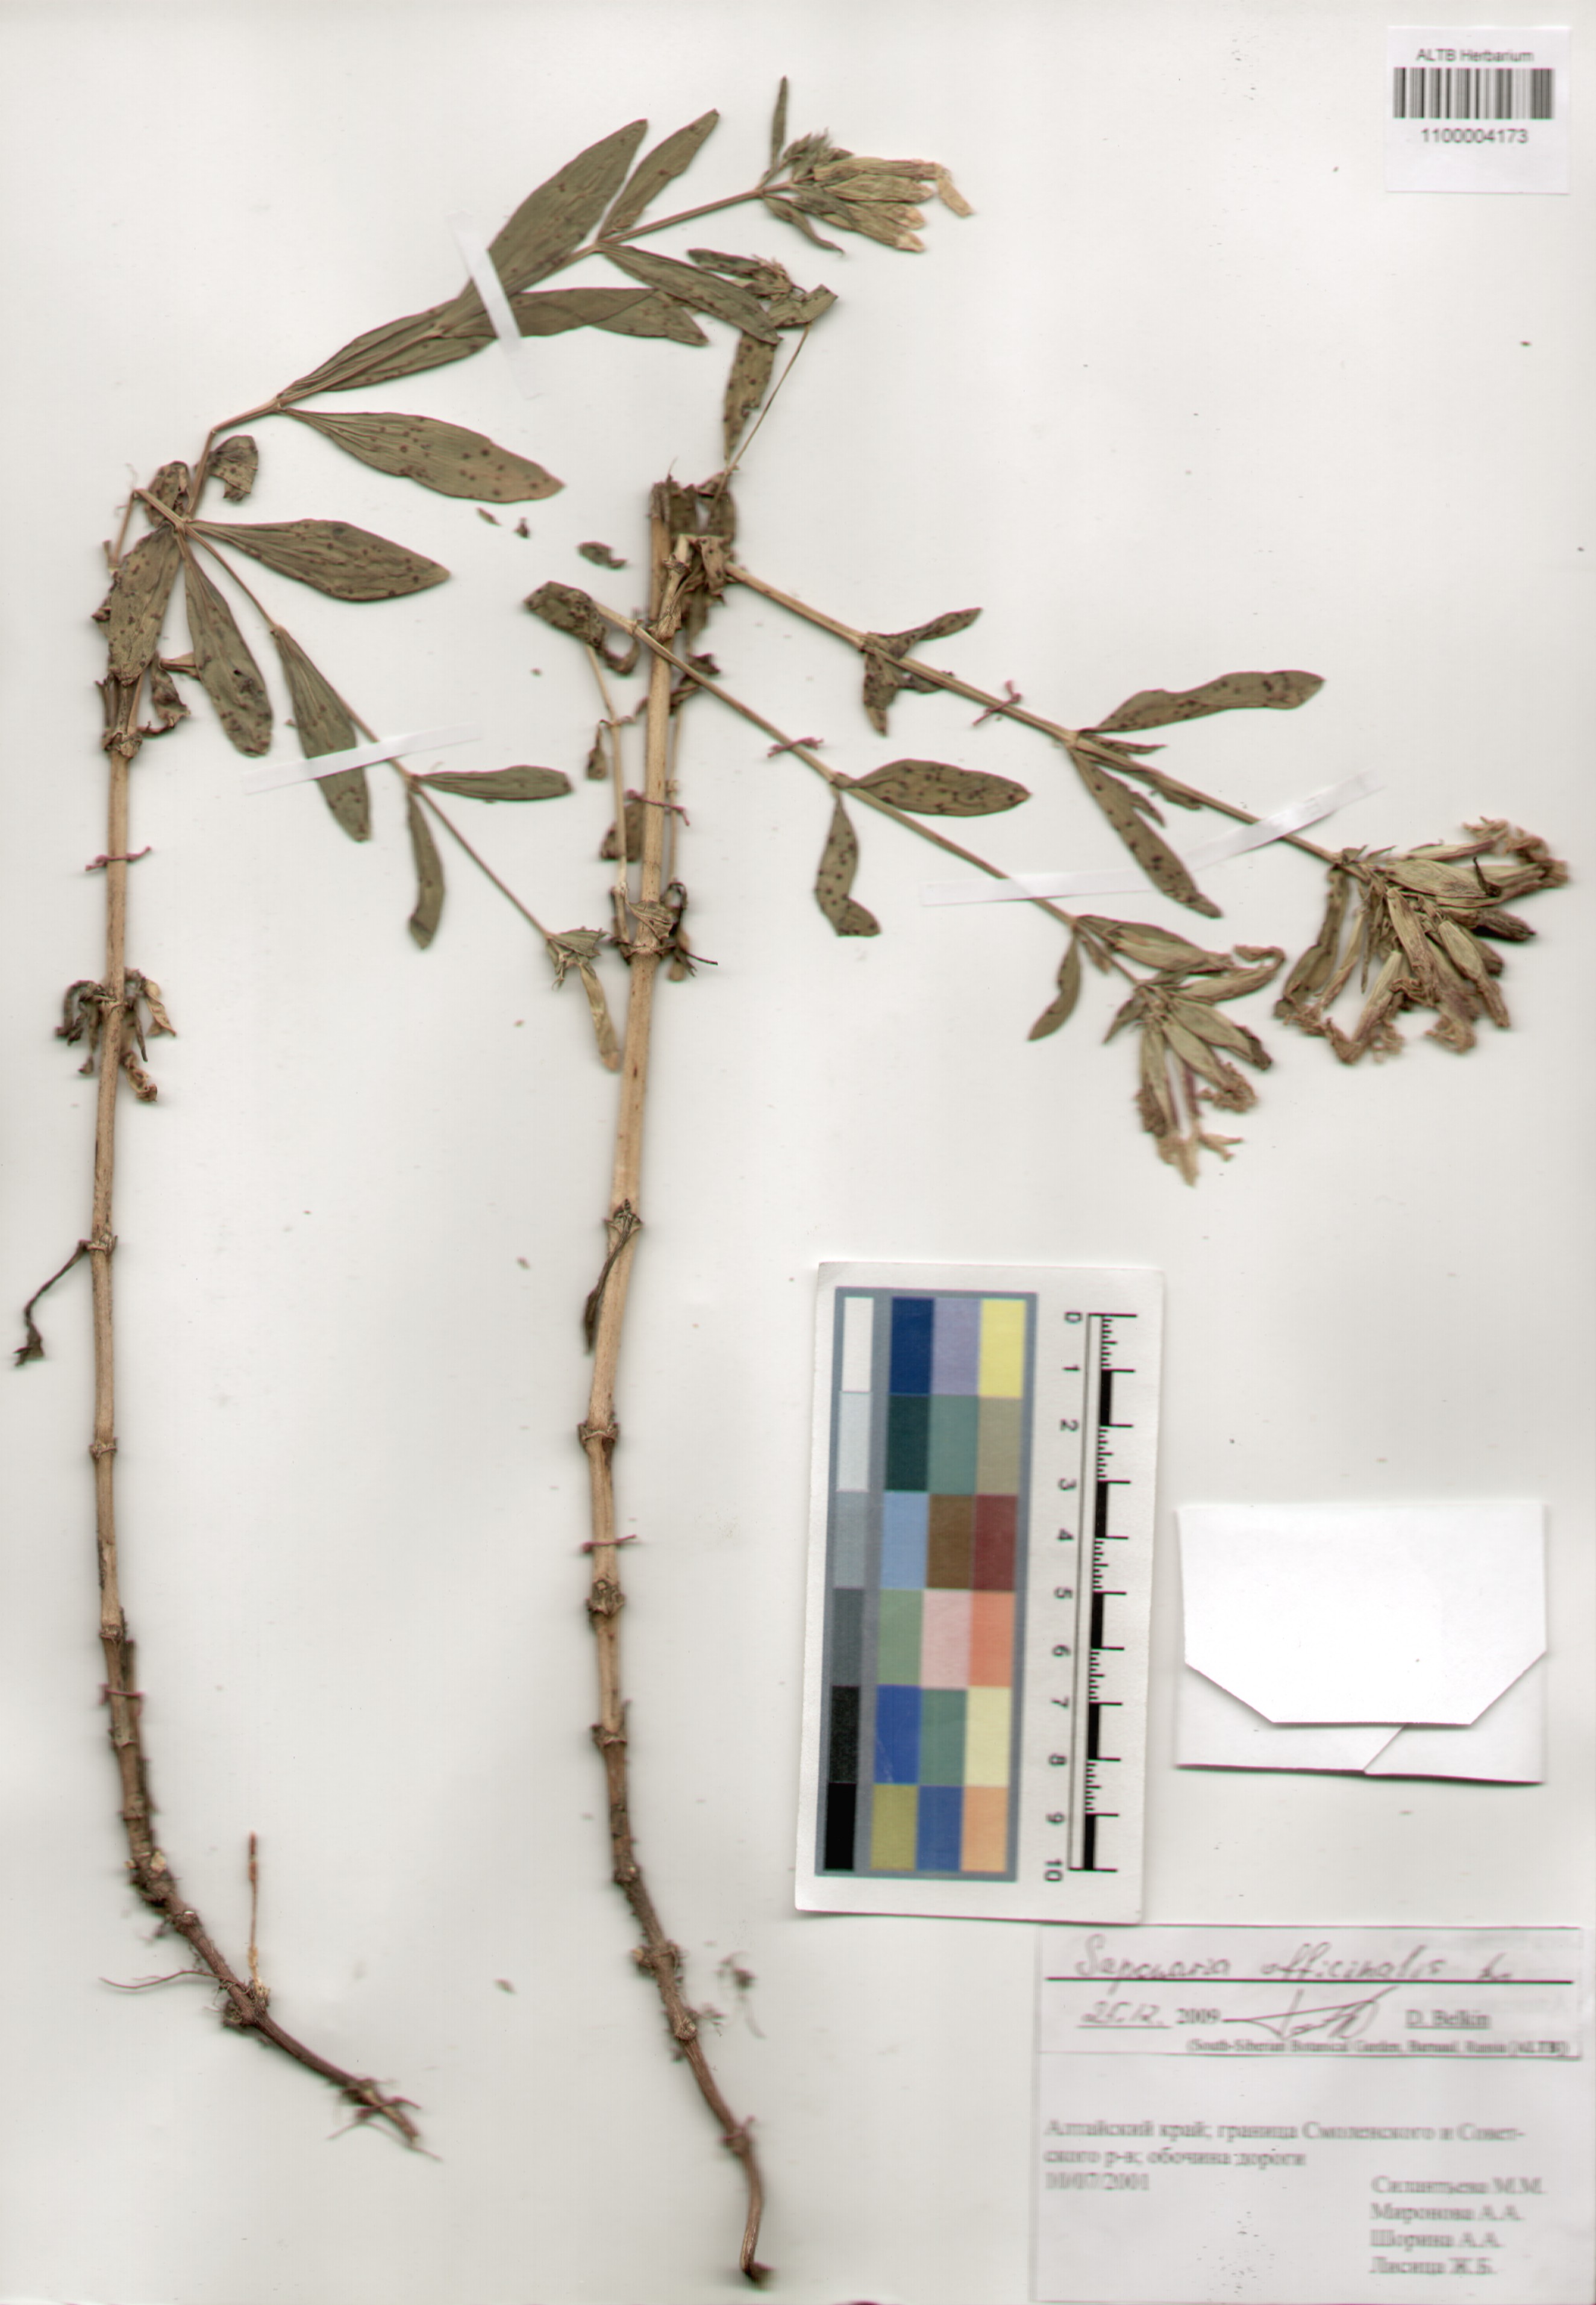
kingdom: Plantae
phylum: Tracheophyta
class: Magnoliopsida
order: Caryophyllales
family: Caryophyllaceae
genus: Saponaria
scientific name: Saponaria officinalis
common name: Soapwort
